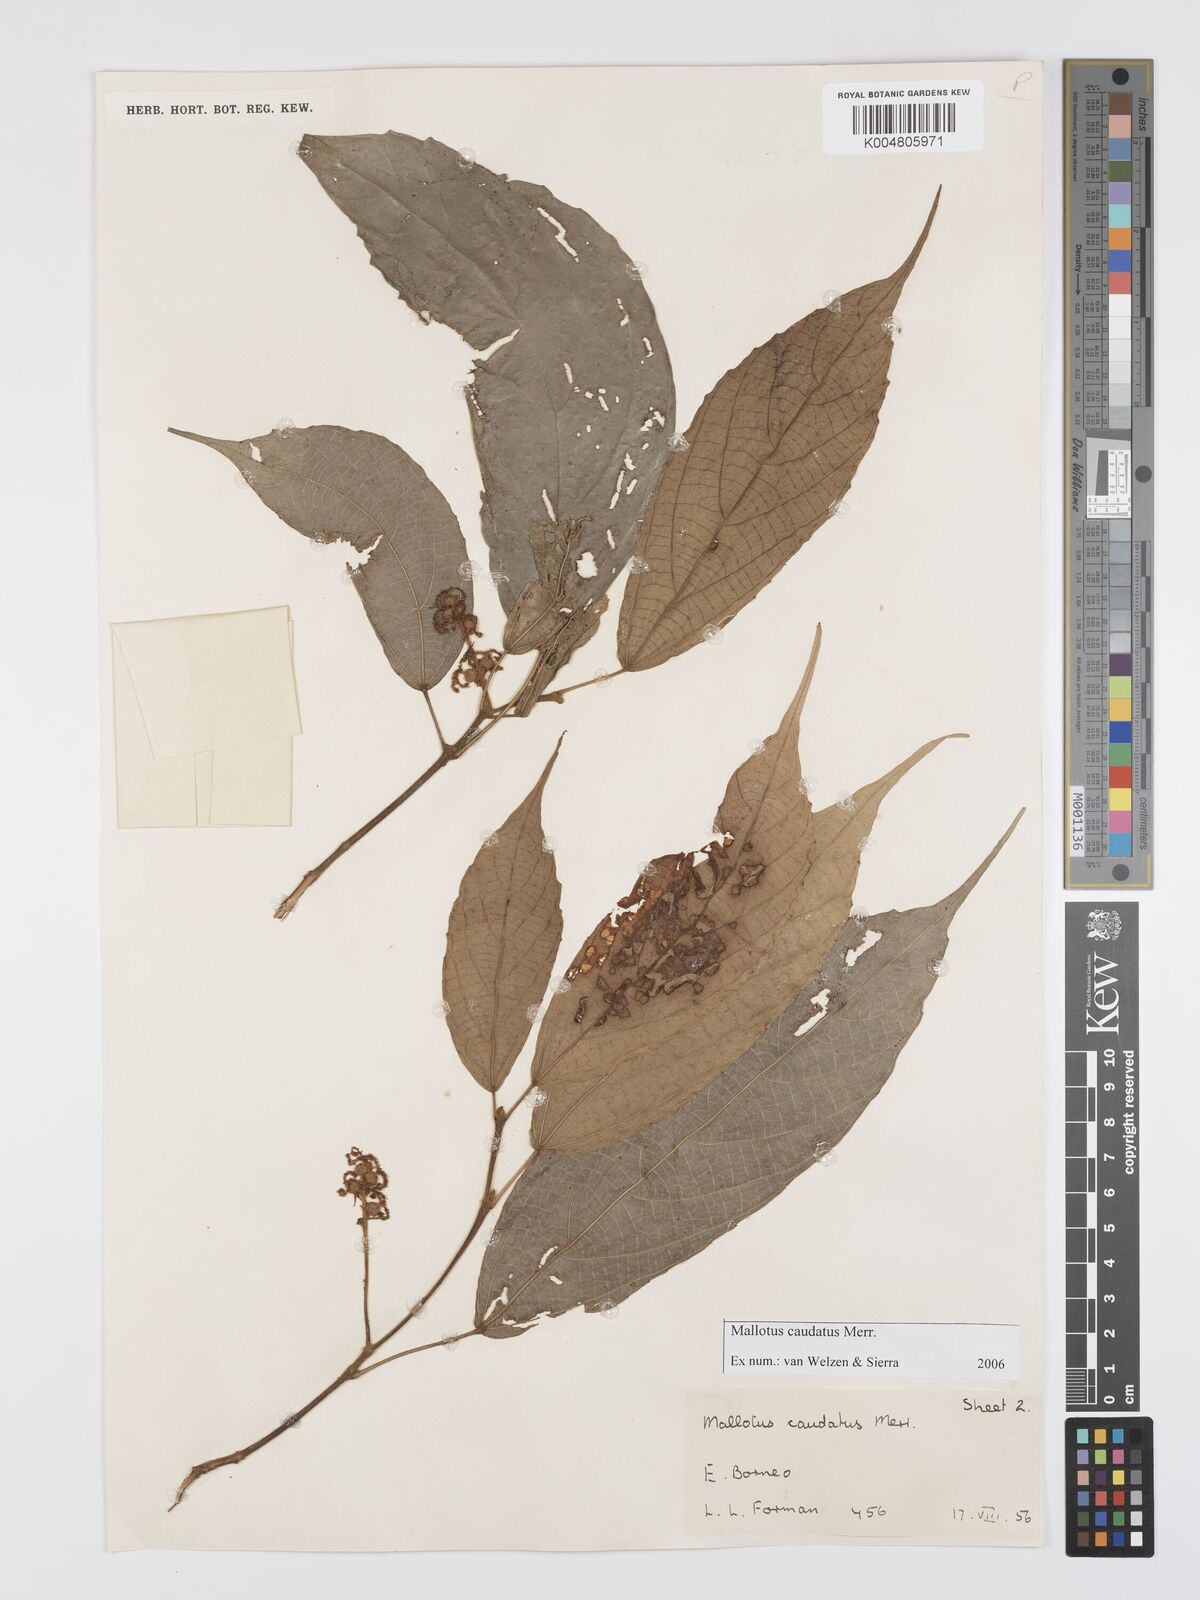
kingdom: Plantae
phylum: Tracheophyta
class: Magnoliopsida
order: Malpighiales
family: Euphorbiaceae
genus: Mallotus
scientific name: Mallotus caudatus
